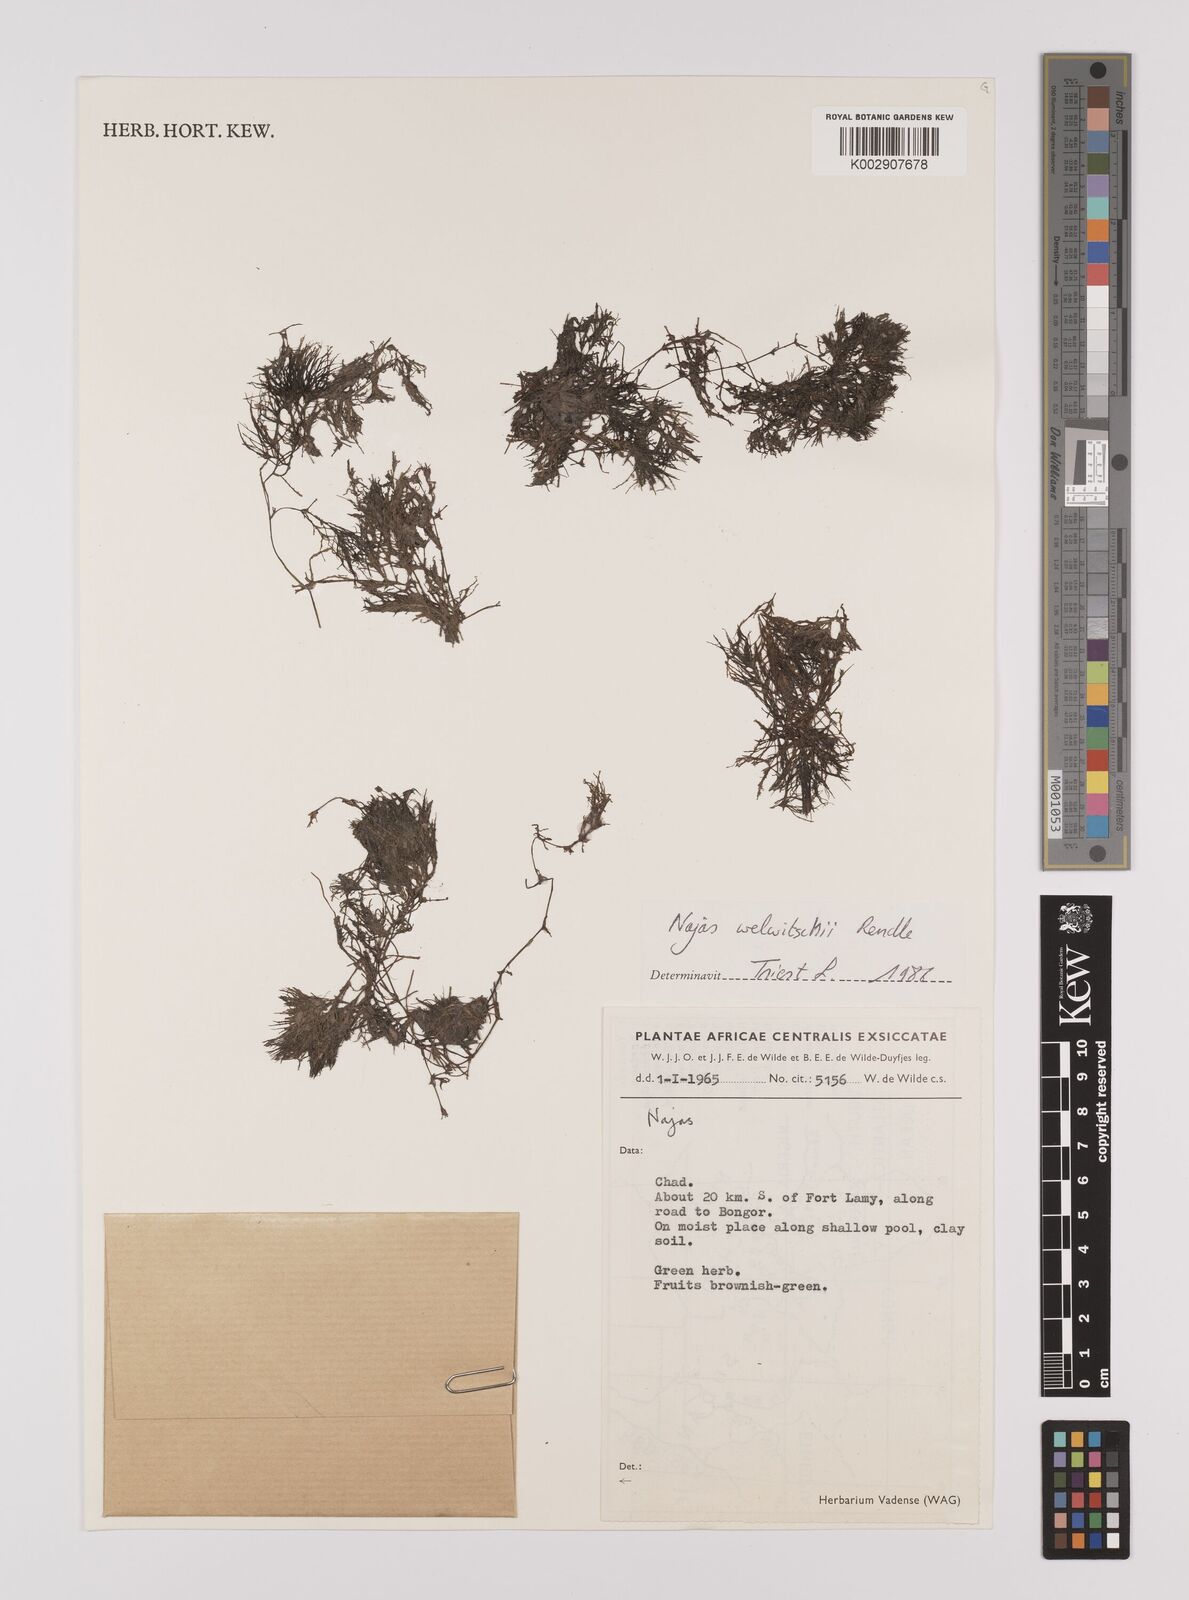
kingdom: Plantae
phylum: Tracheophyta
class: Liliopsida
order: Alismatales
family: Hydrocharitaceae
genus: Najas
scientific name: Najas welwitschii
